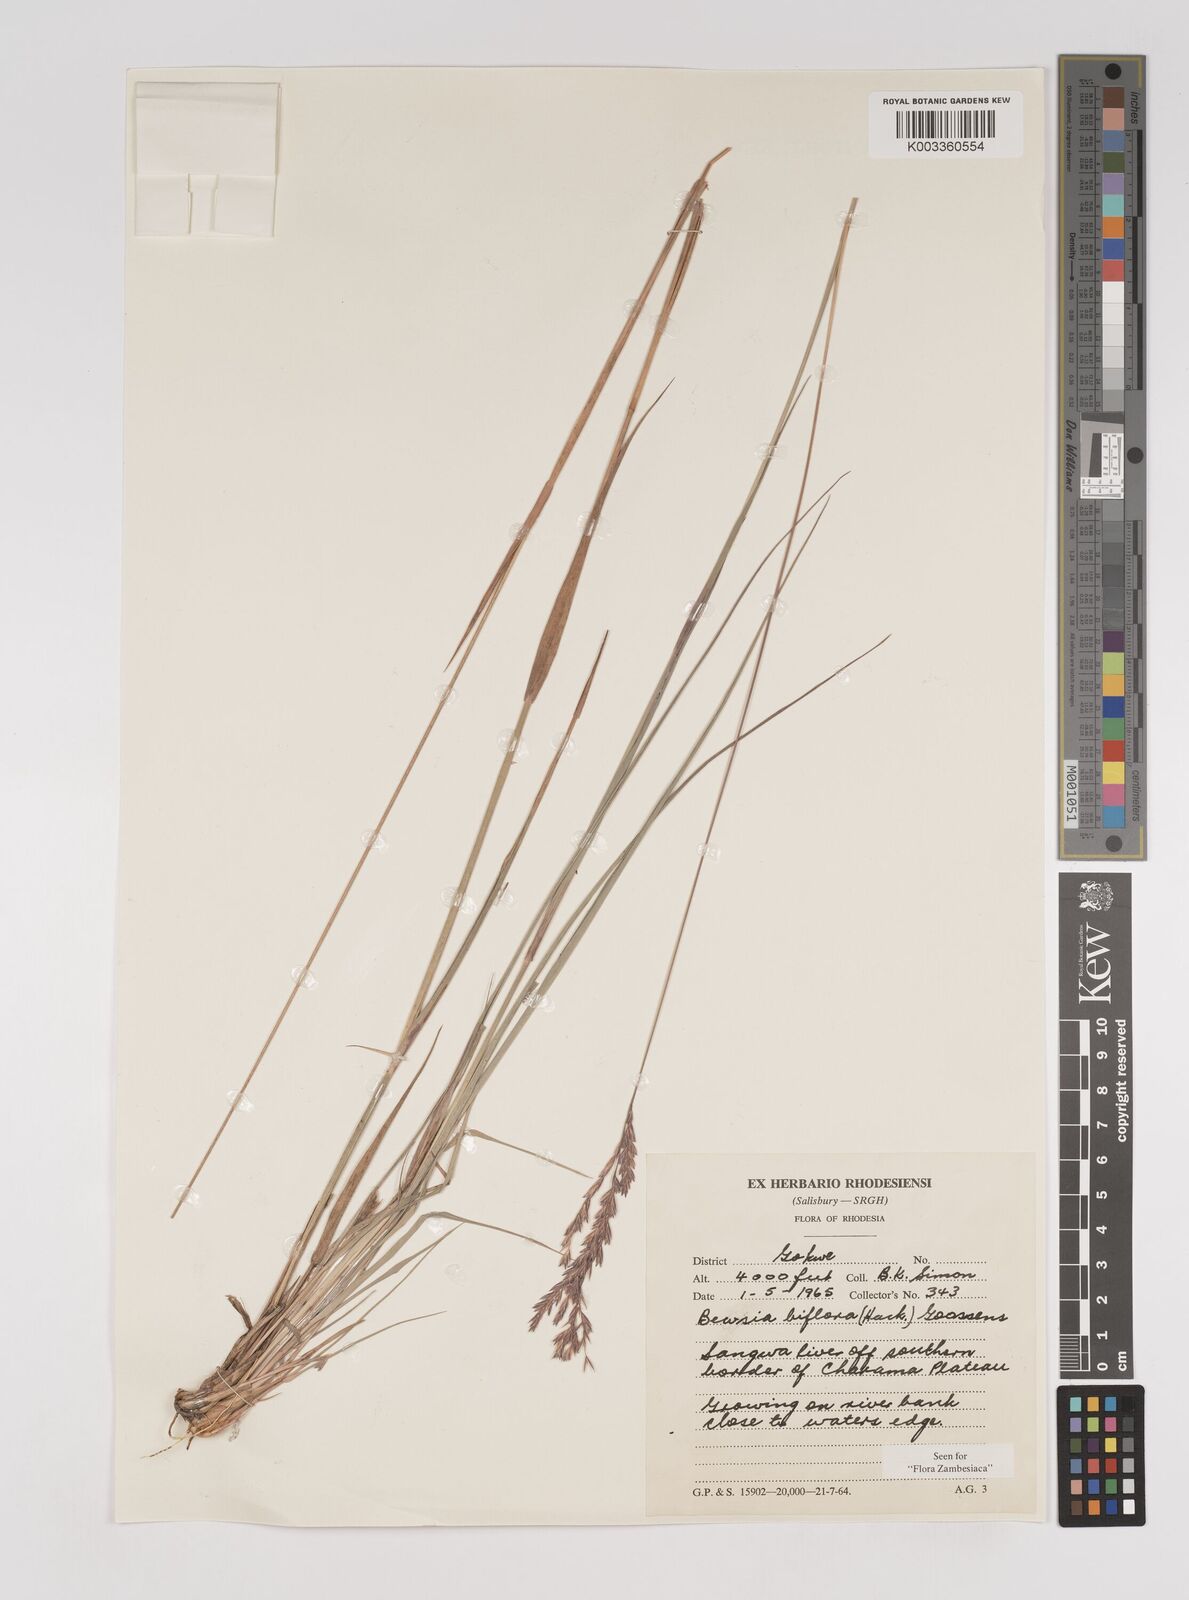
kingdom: Plantae
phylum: Tracheophyta
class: Liliopsida
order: Poales
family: Poaceae
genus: Bewsia
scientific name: Bewsia biflora
